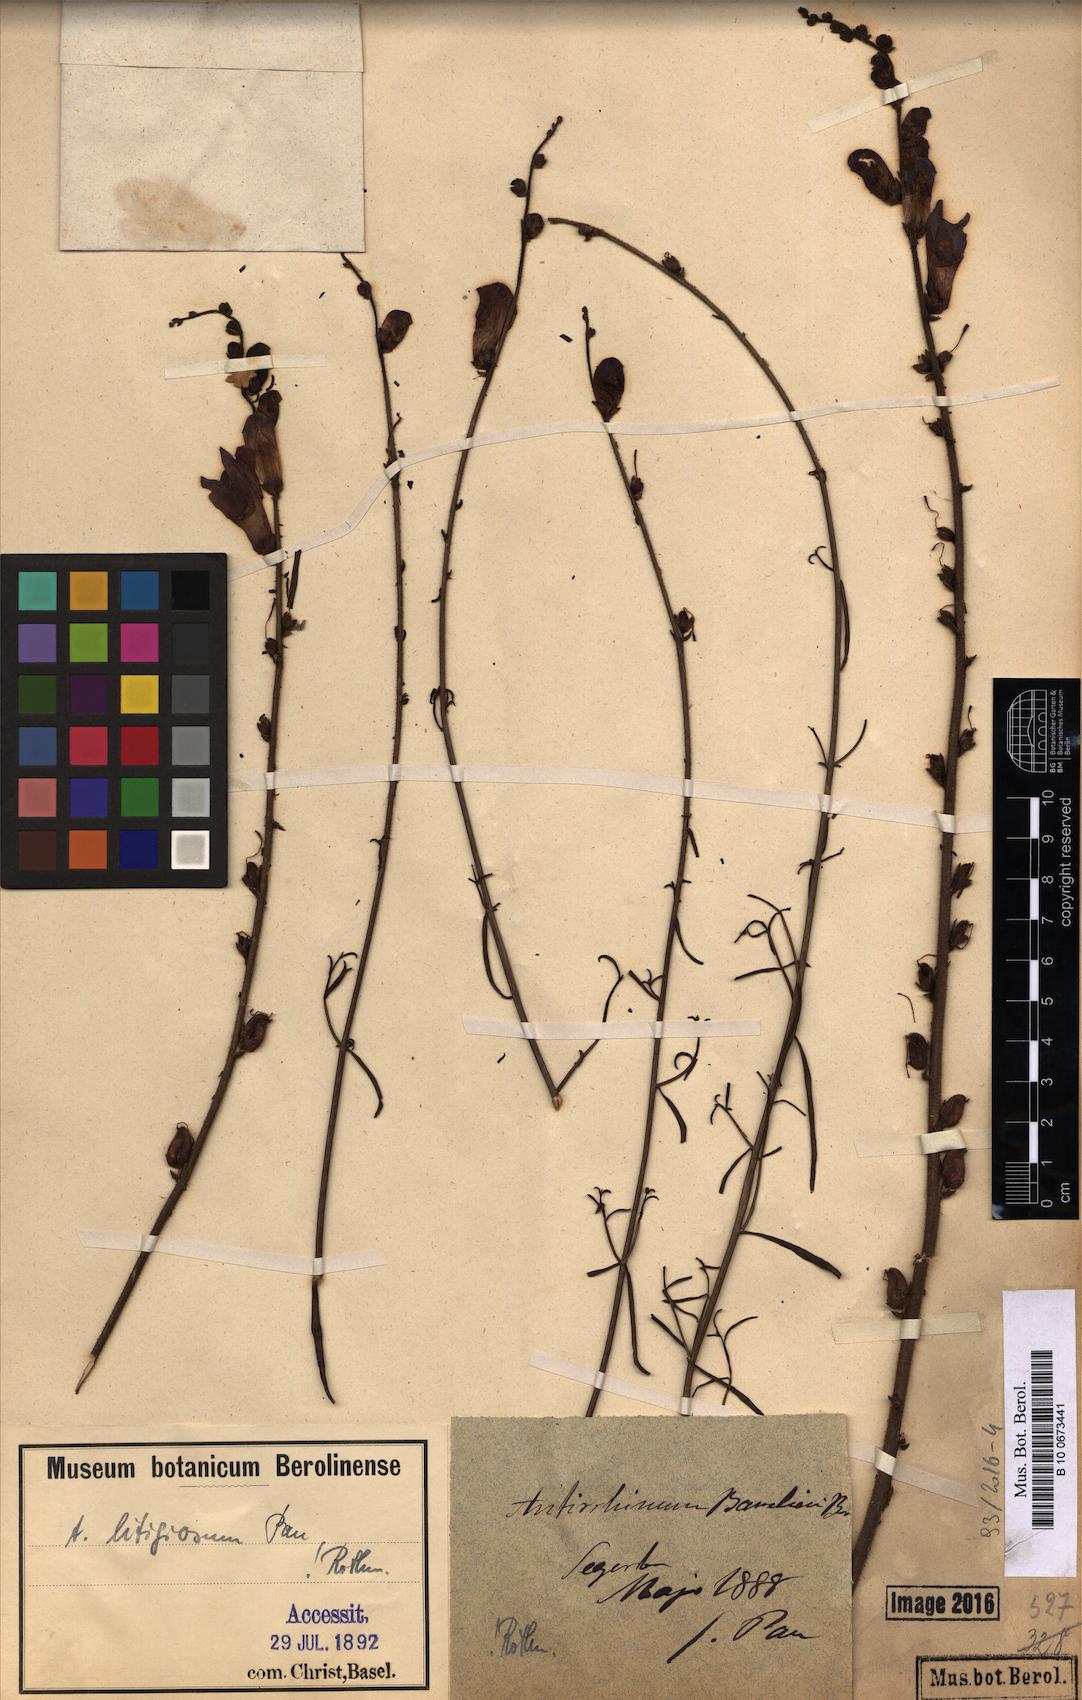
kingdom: Plantae
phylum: Tracheophyta
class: Magnoliopsida
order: Lamiales
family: Plantaginaceae
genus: Antirrhinum
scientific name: Antirrhinum litigiosum
